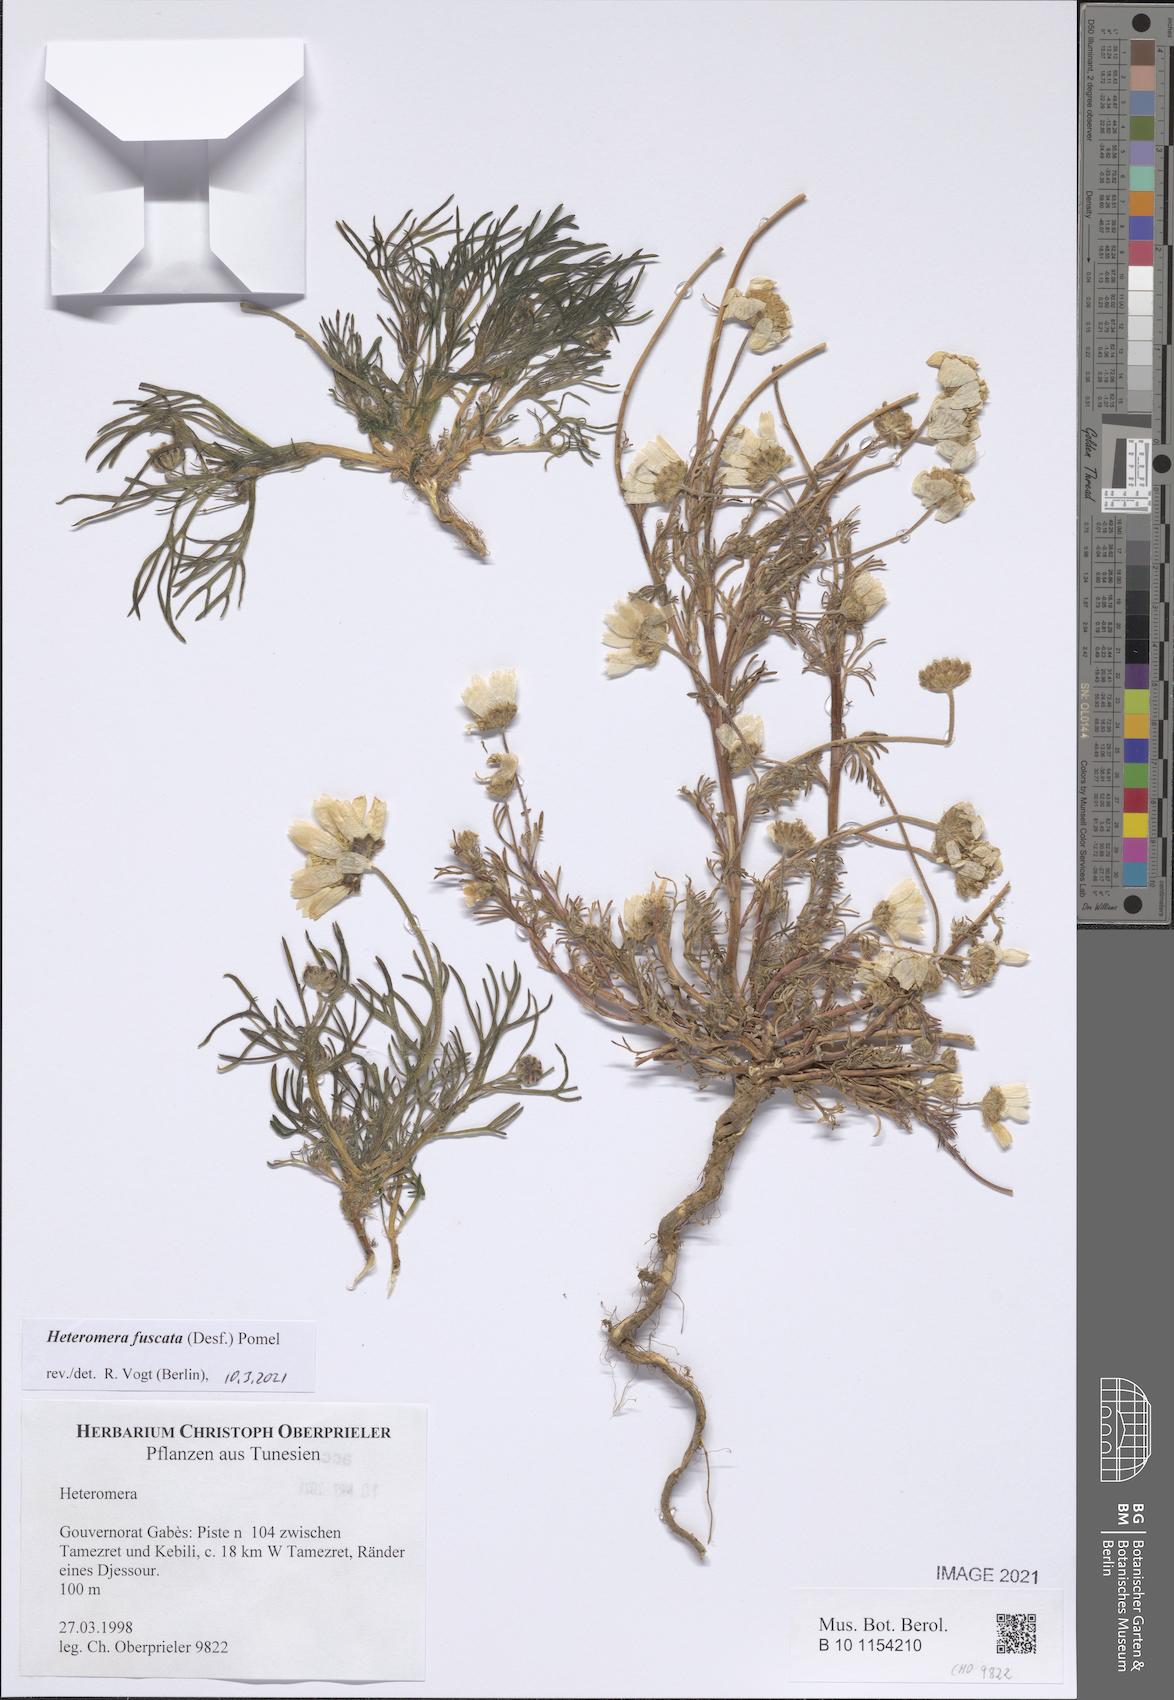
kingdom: Plantae
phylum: Tracheophyta
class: Magnoliopsida
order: Asterales
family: Asteraceae
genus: Heteromera
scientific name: Heteromera fuscata
